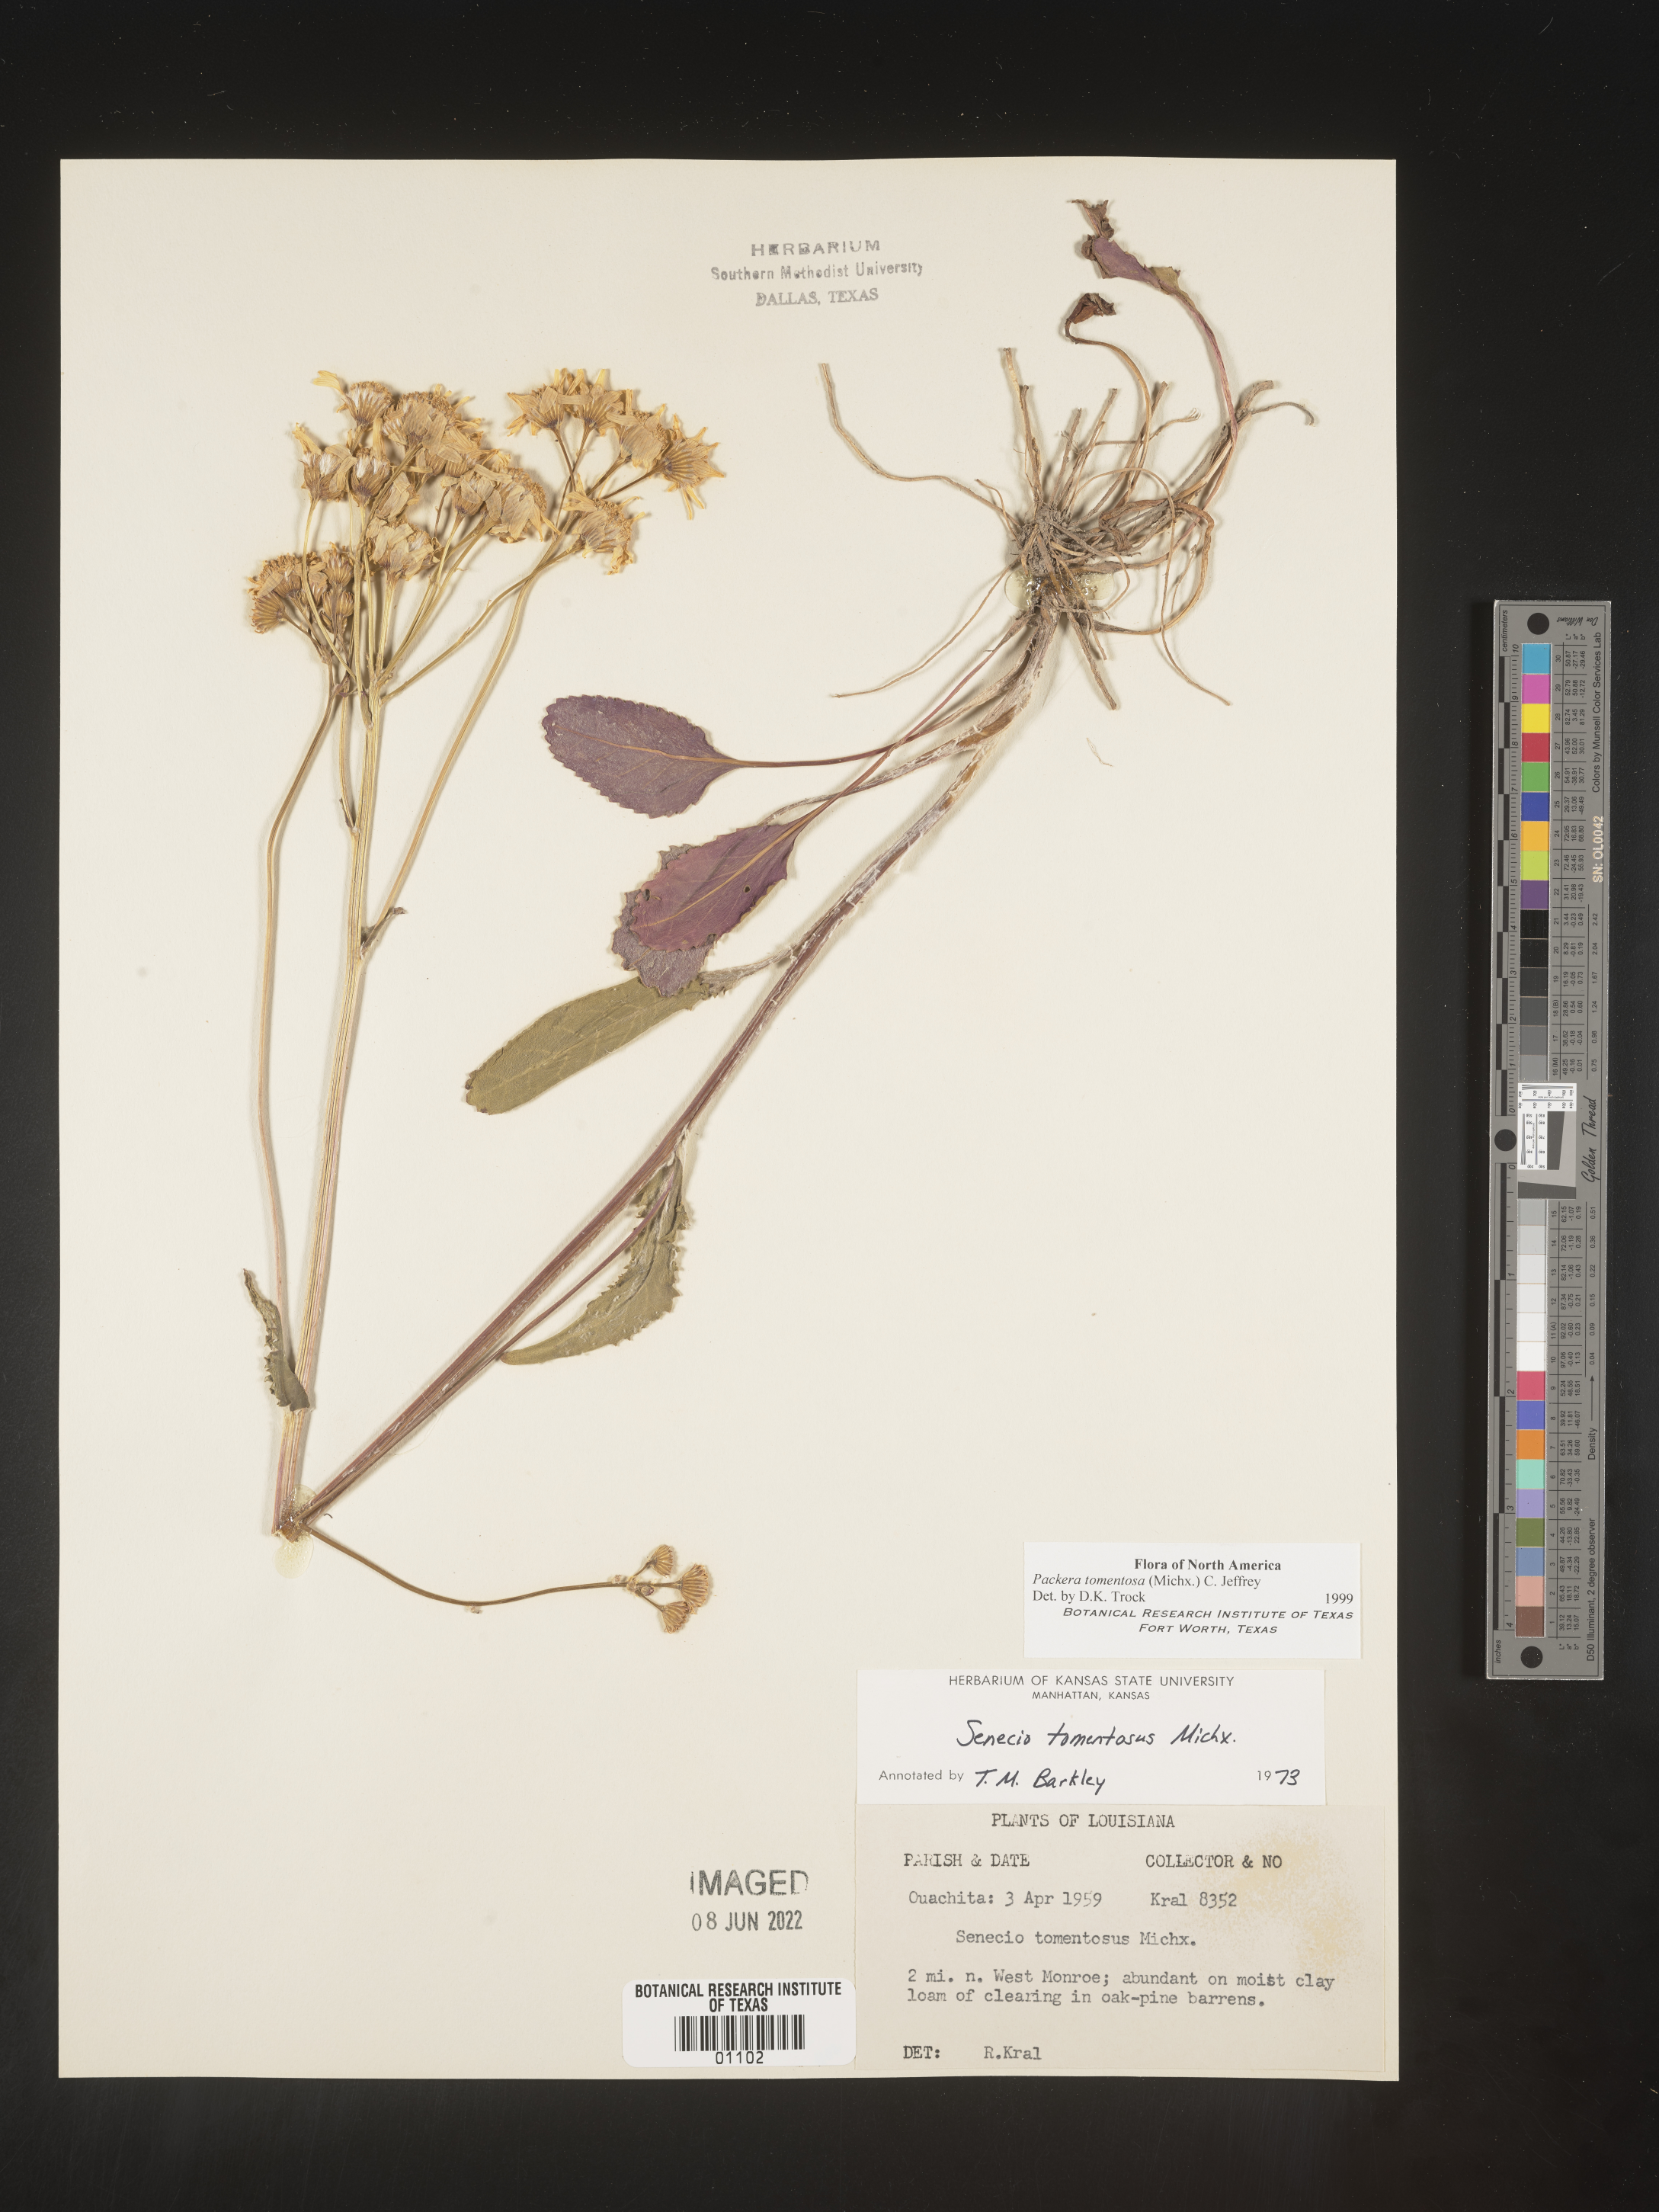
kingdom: Plantae
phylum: Tracheophyta
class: Magnoliopsida
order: Asterales
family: Asteraceae
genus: Packera
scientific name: Packera dubia
